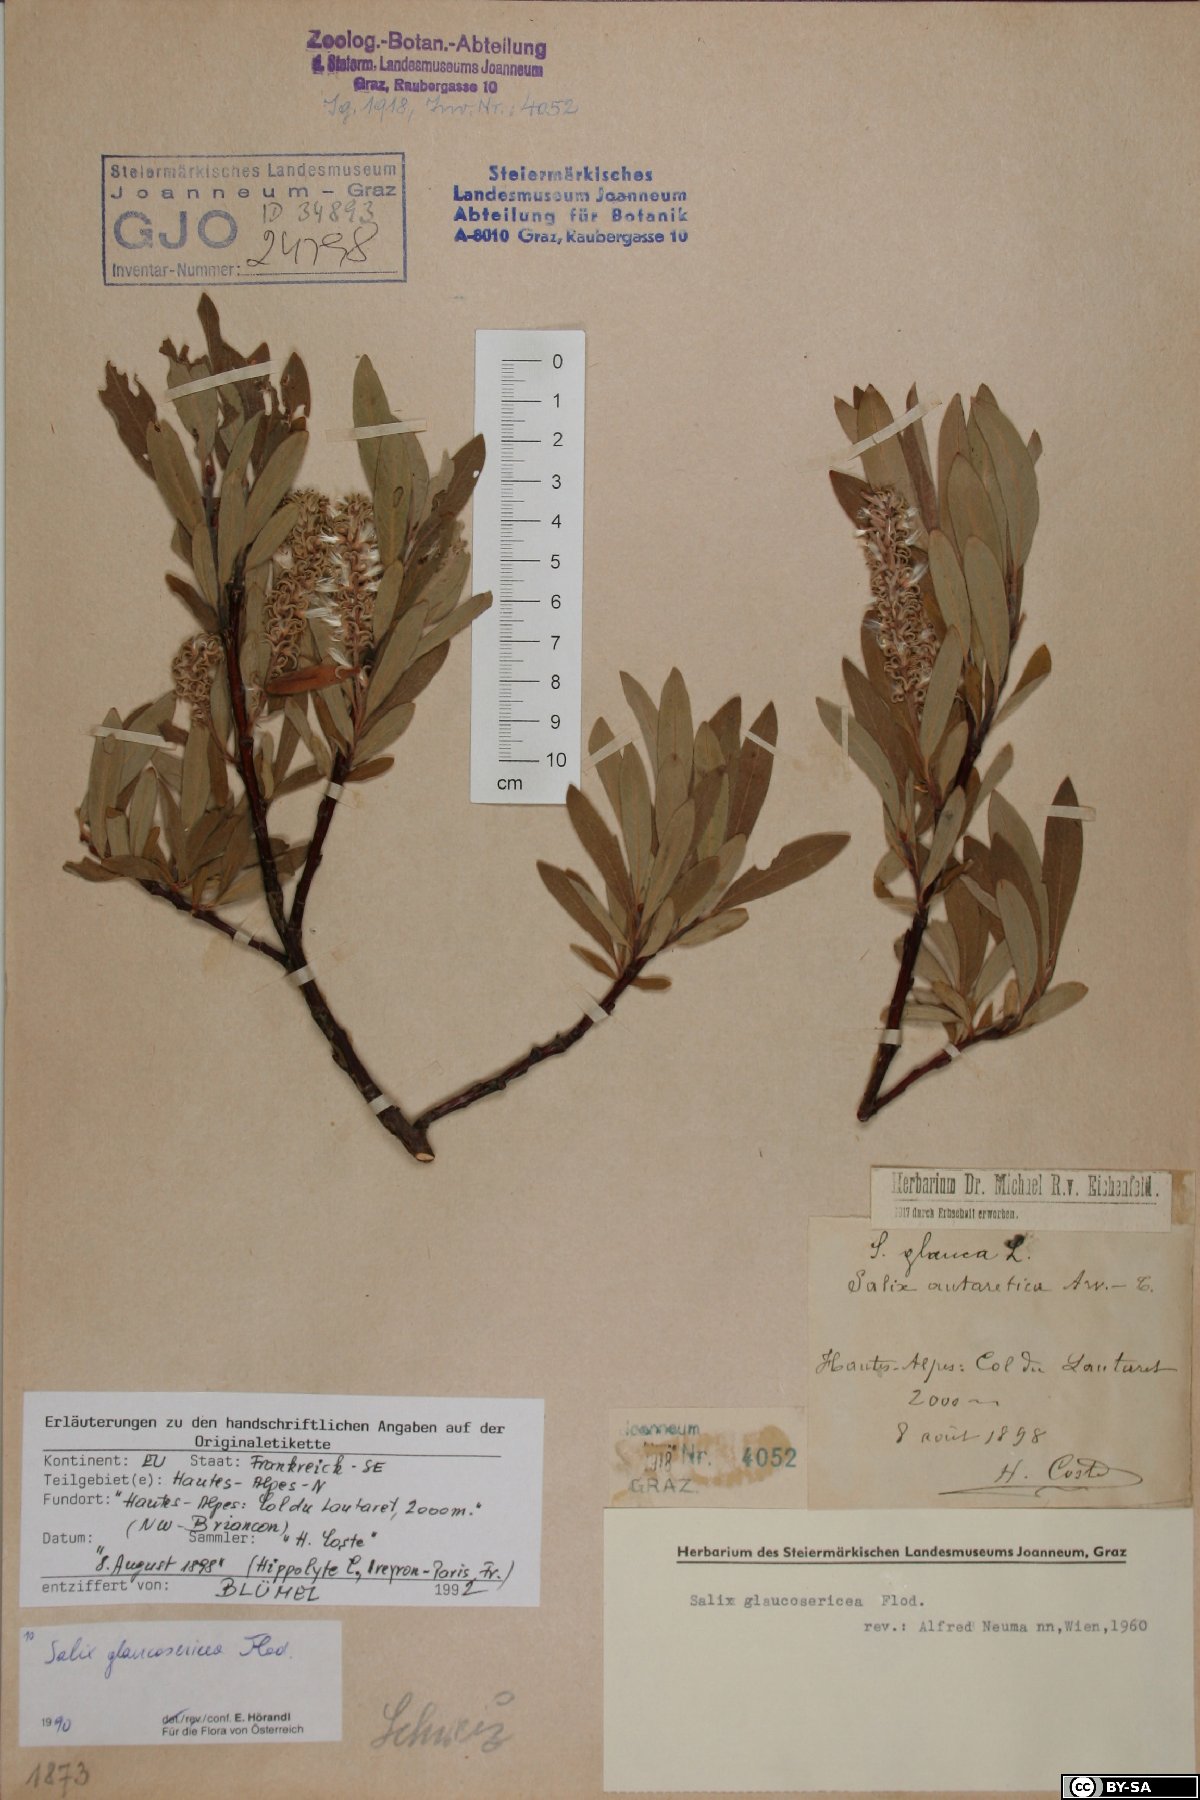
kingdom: Plantae
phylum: Tracheophyta
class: Magnoliopsida
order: Malpighiales
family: Salicaceae
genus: Salix
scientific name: Salix glaucosericea
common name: Alpine gray willow
